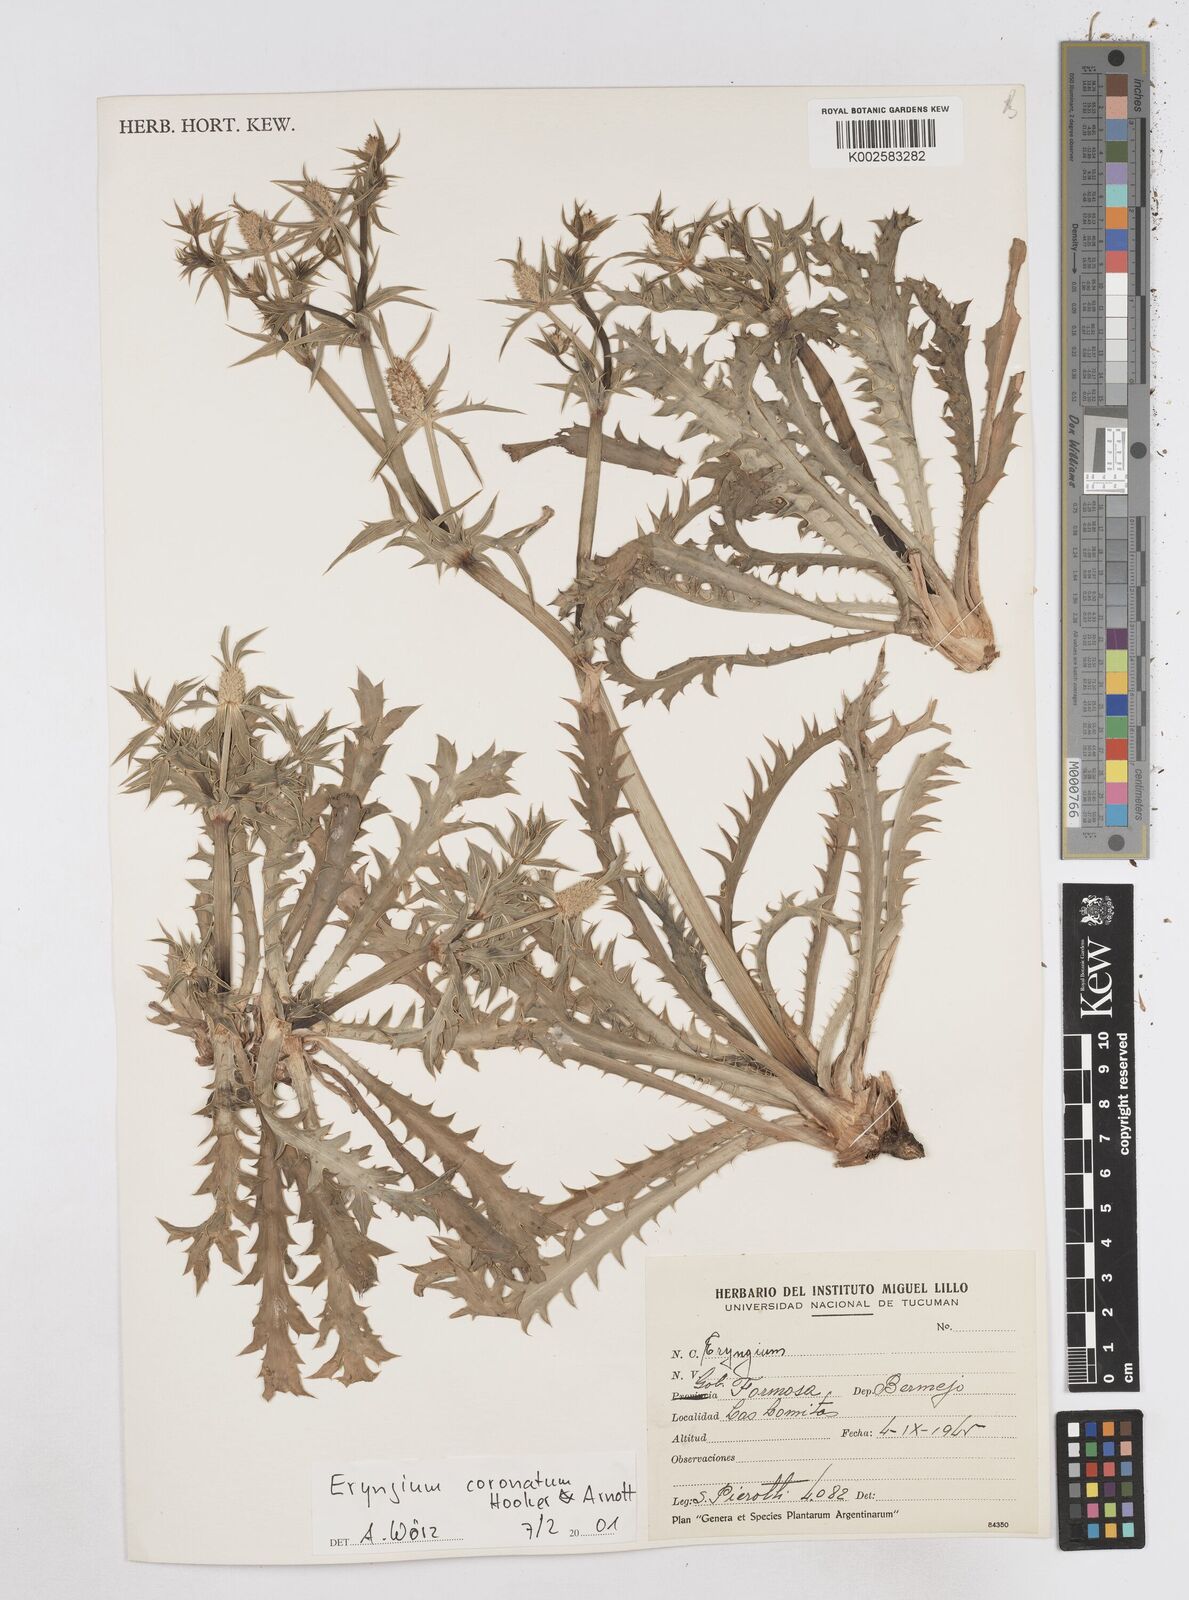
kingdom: Plantae
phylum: Tracheophyta
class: Magnoliopsida
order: Apiales
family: Apiaceae
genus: Eryngium
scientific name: Eryngium coronatum
